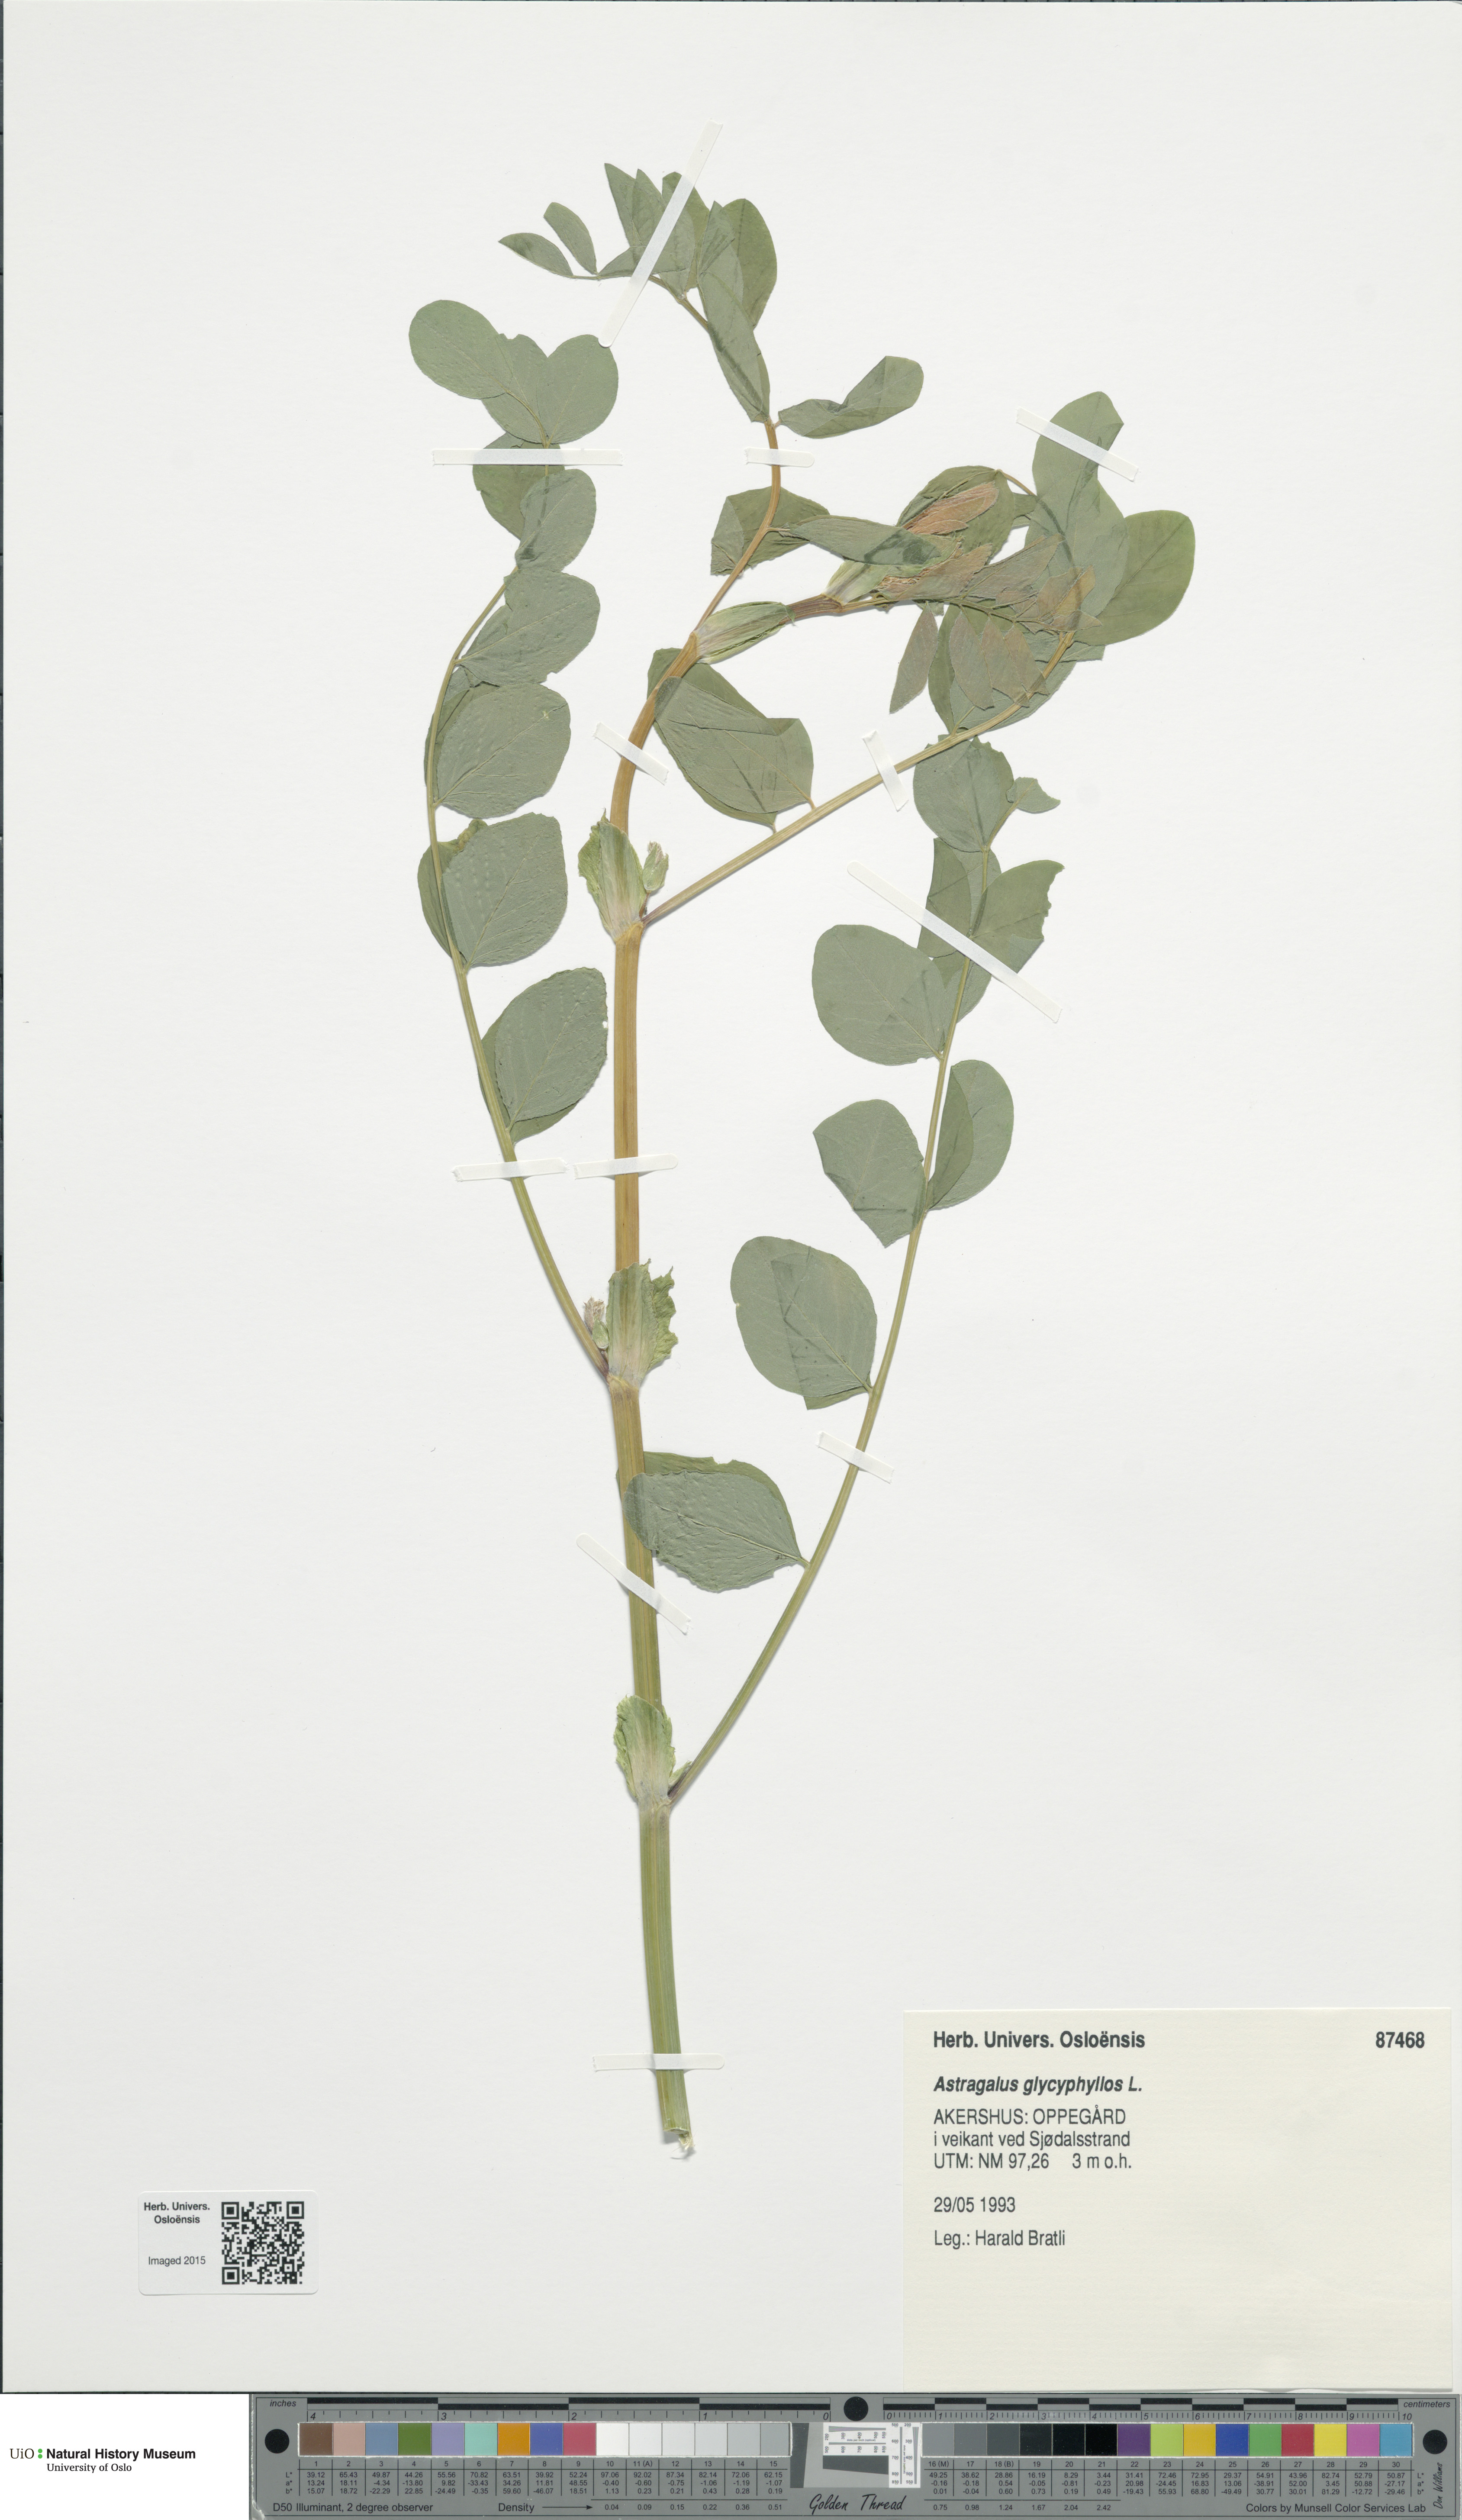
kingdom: Plantae
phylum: Tracheophyta
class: Magnoliopsida
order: Fabales
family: Fabaceae
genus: Astragalus
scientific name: Astragalus glycyphyllos
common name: Wild liquorice
